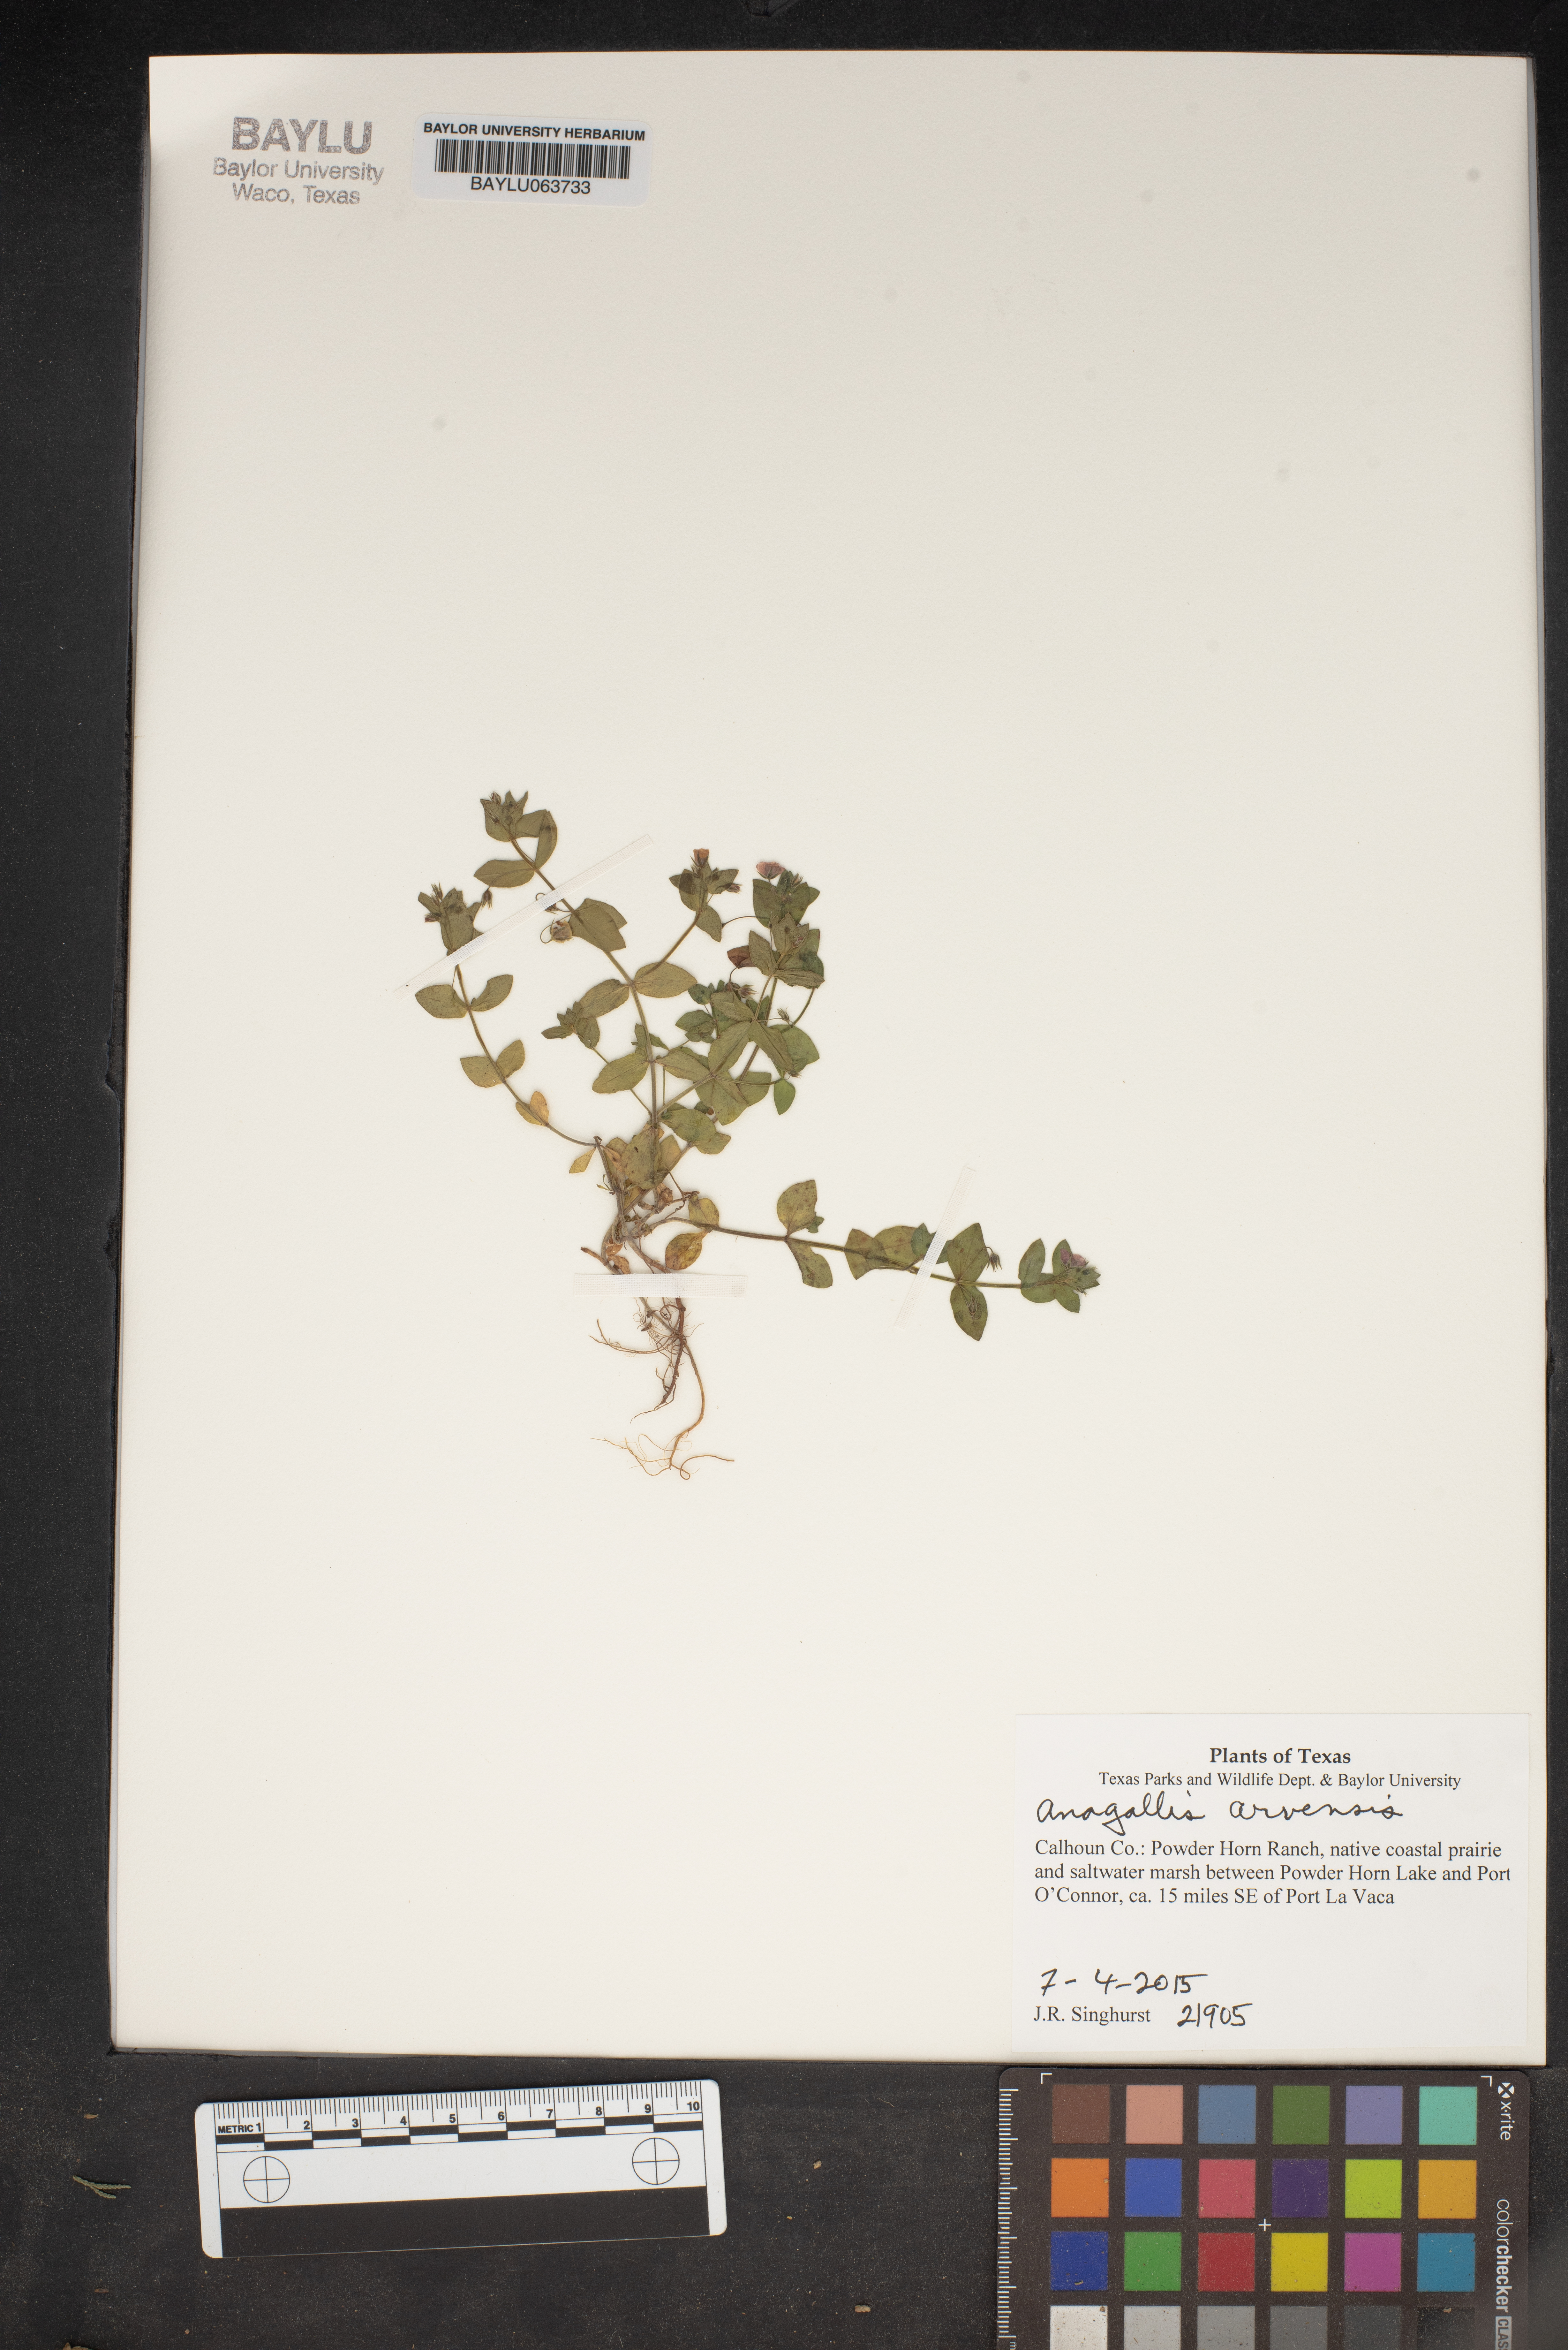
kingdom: Plantae
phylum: Tracheophyta
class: Magnoliopsida
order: Ericales
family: Primulaceae
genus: Lysimachia
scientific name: Lysimachia arvensis
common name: Scarlet pimpernel
